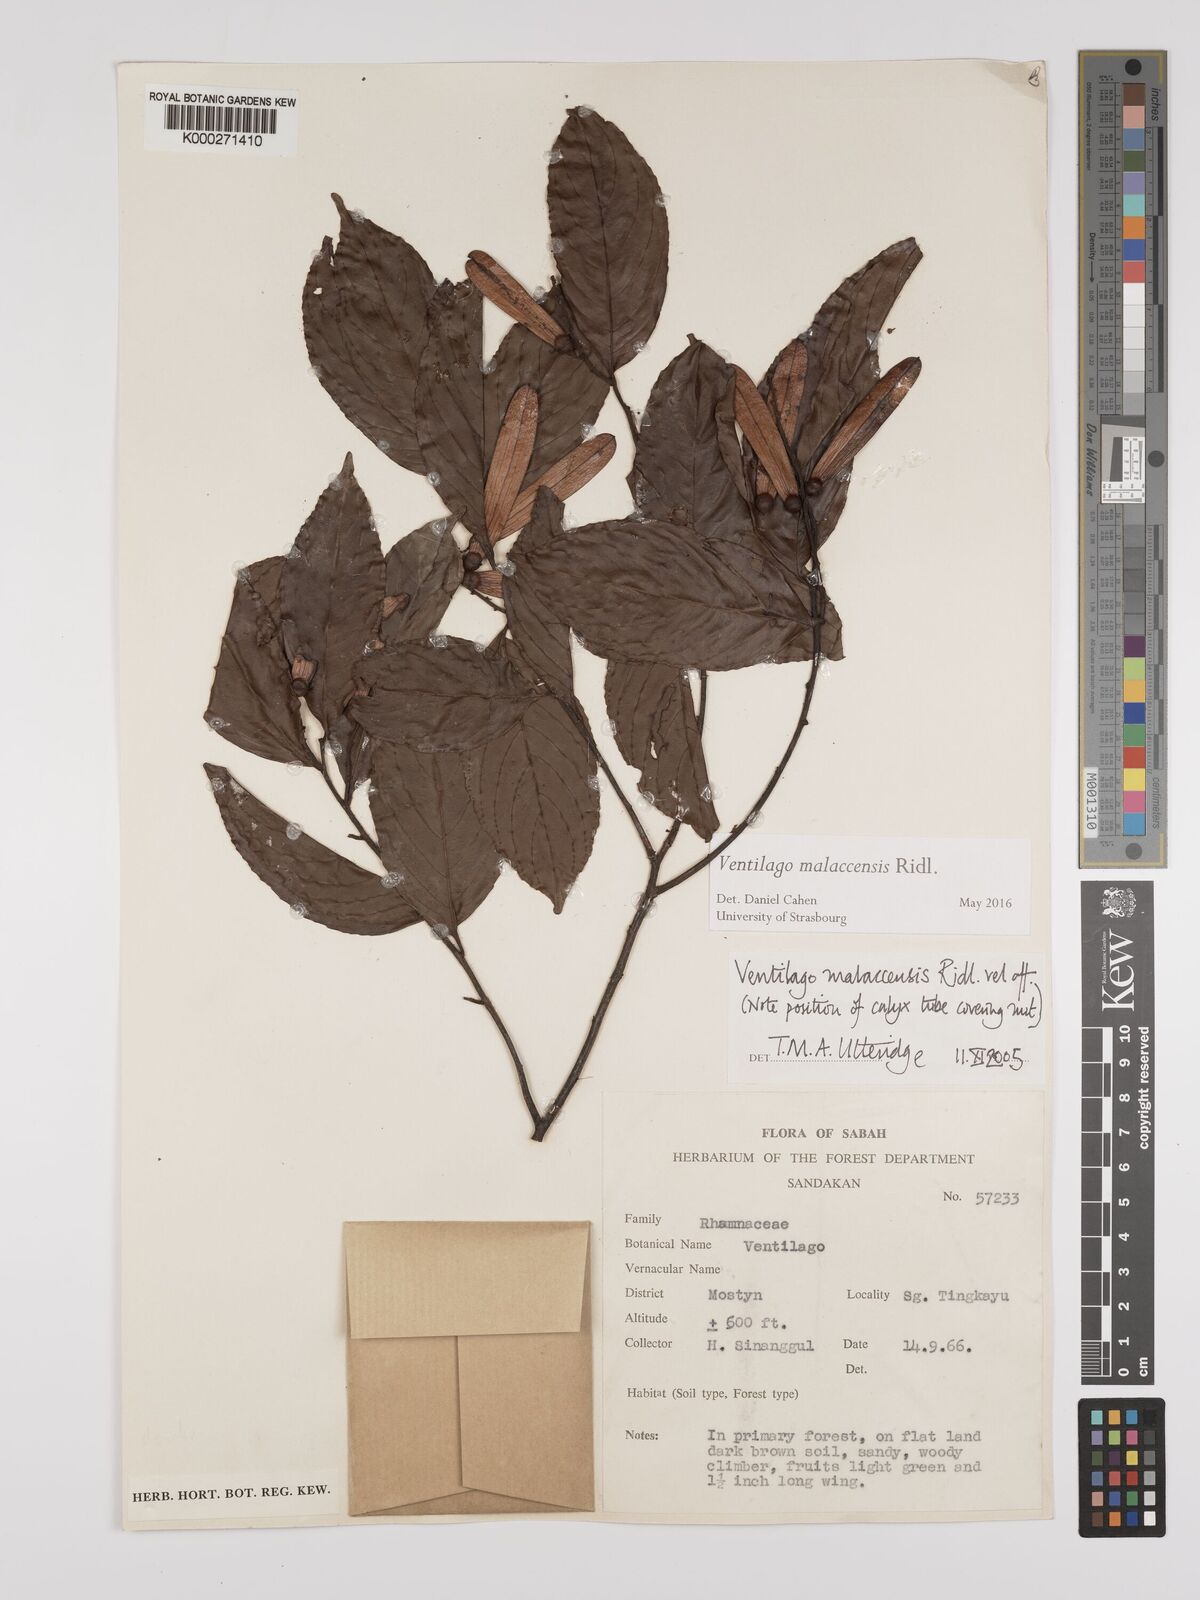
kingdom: Plantae
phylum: Tracheophyta
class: Magnoliopsida
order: Rosales
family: Rhamnaceae
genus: Ventilago
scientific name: Ventilago
